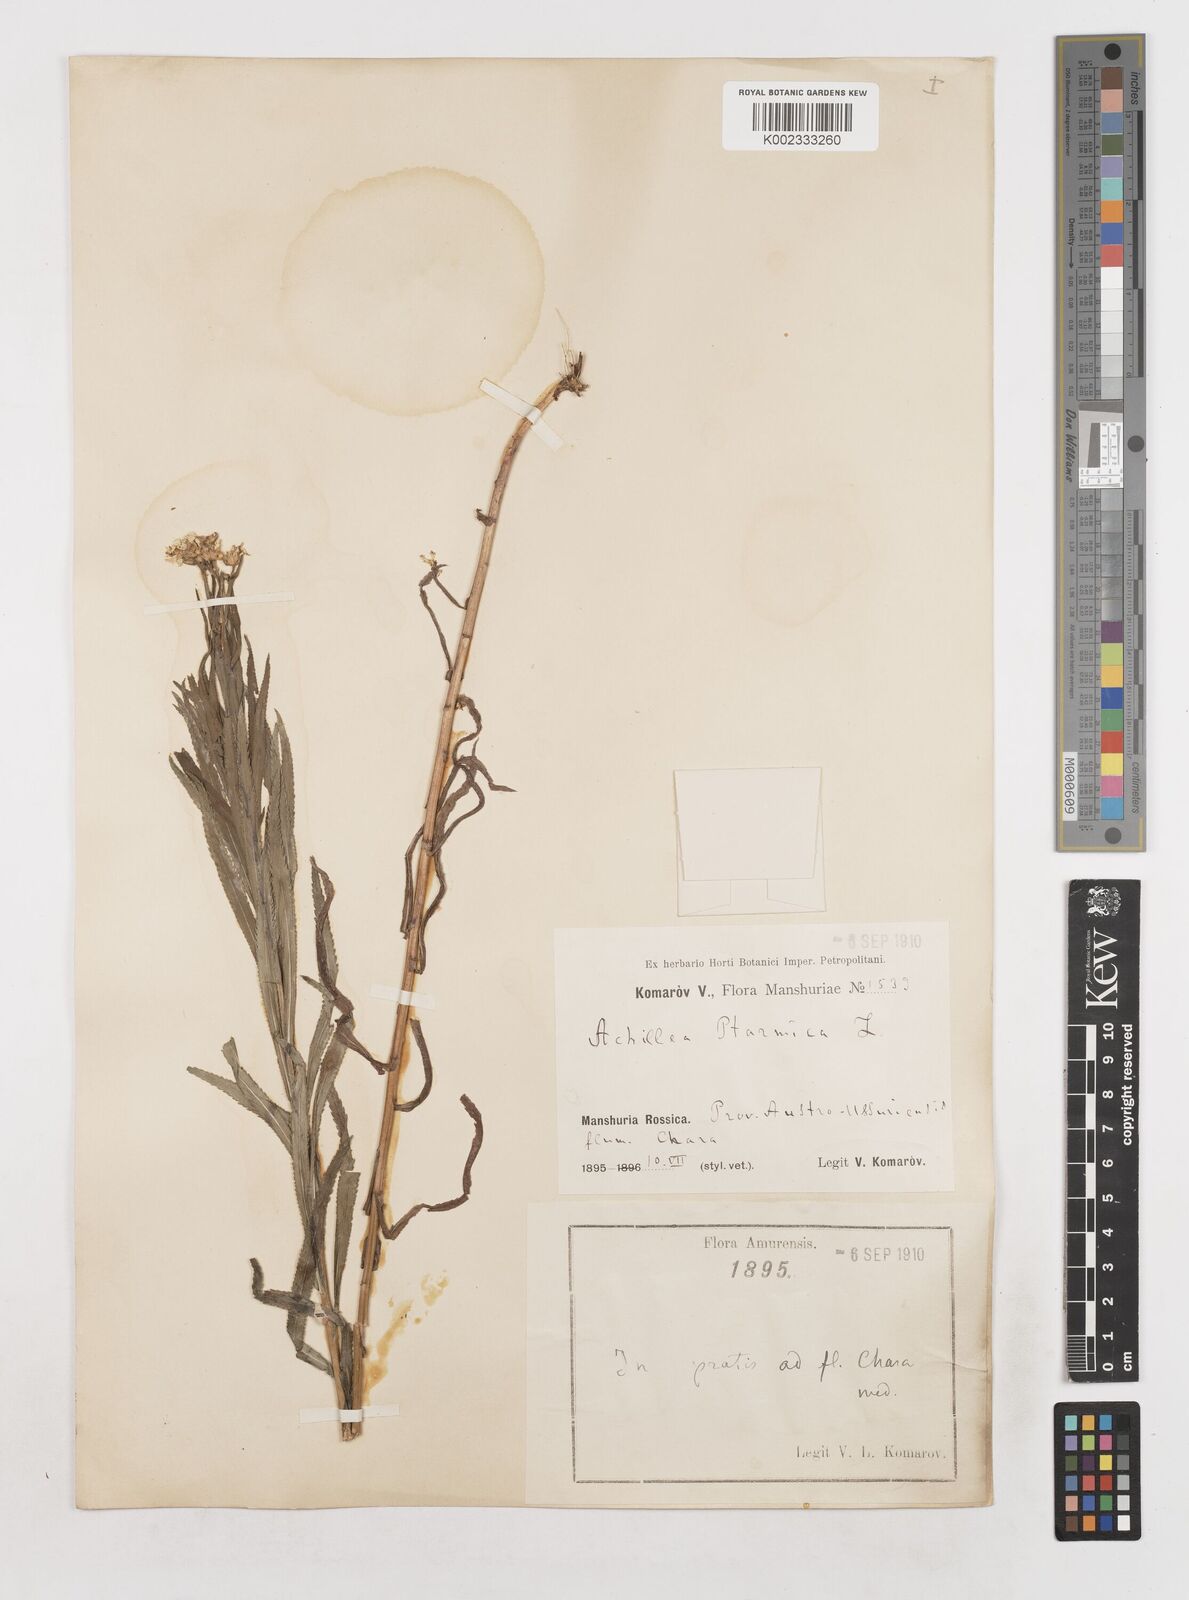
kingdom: Plantae
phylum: Tracheophyta
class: Magnoliopsida
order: Asterales
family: Asteraceae
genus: Achillea
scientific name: Achillea ptarmica
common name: Sneezeweed
